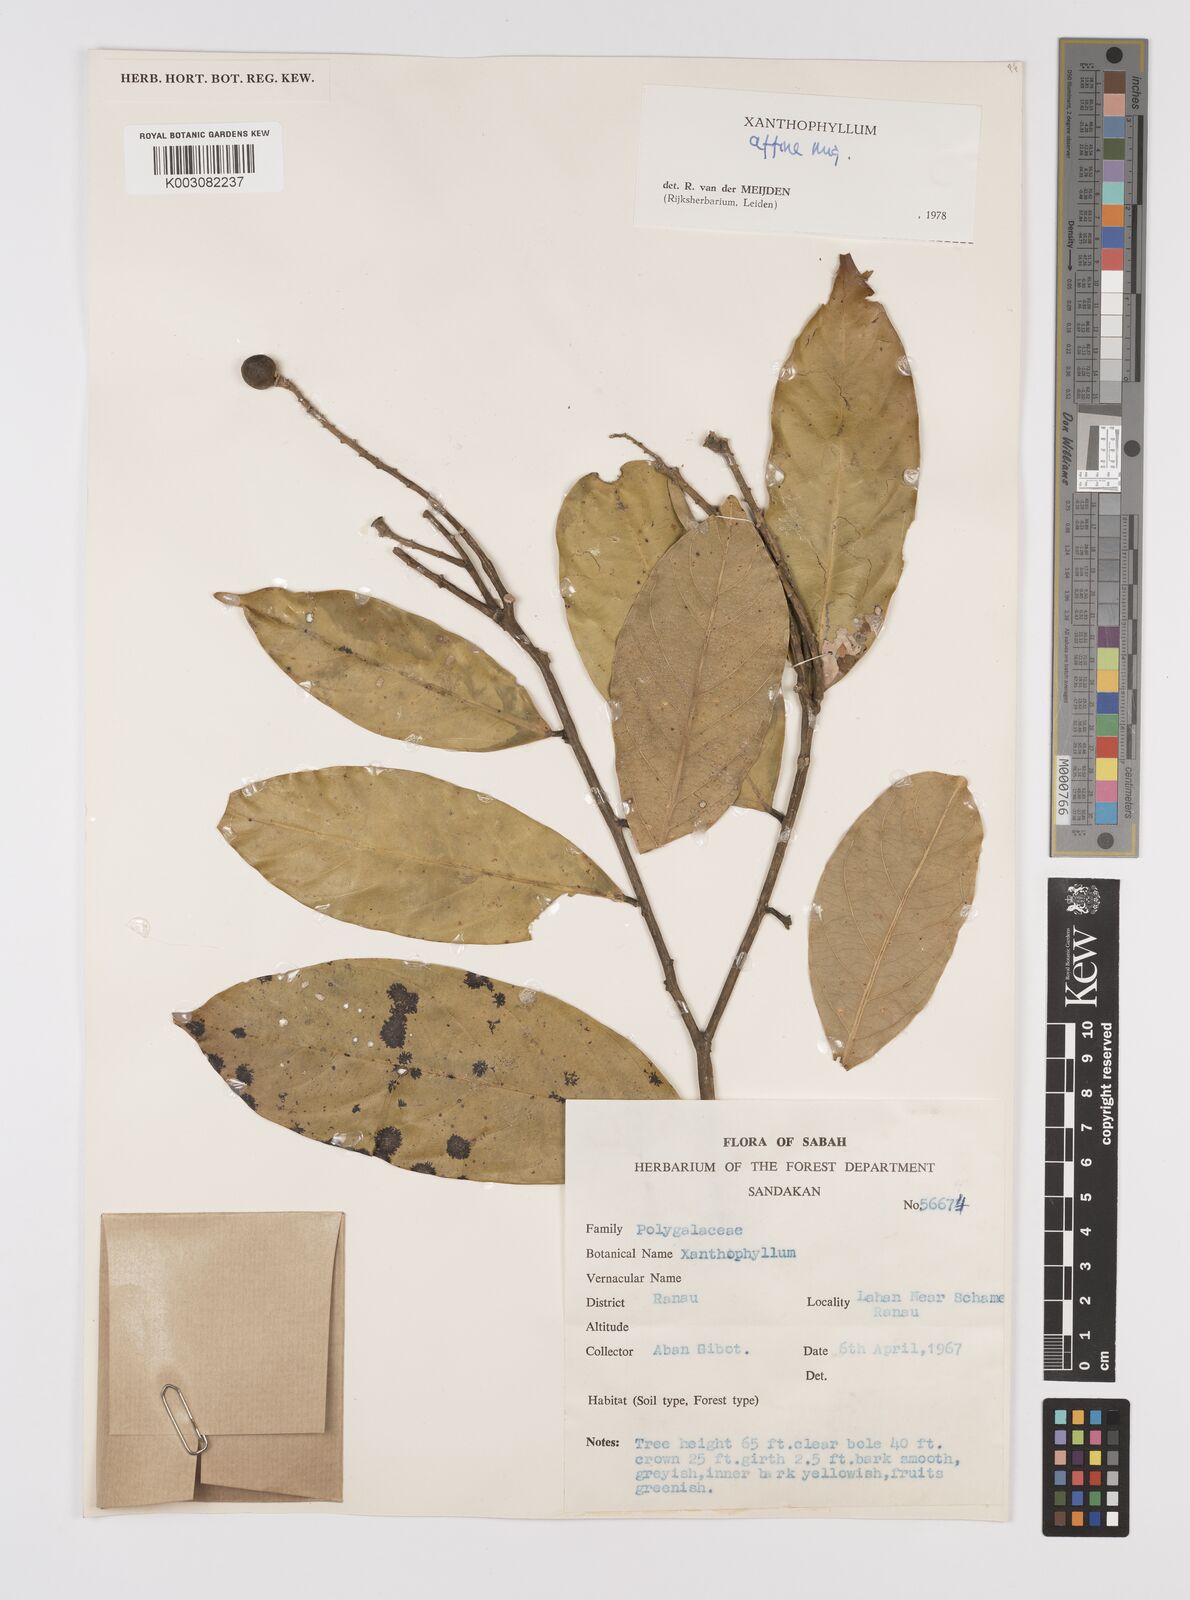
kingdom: Plantae
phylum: Tracheophyta
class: Magnoliopsida
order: Fabales
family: Polygalaceae
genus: Xanthophyllum
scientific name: Xanthophyllum flavescens
